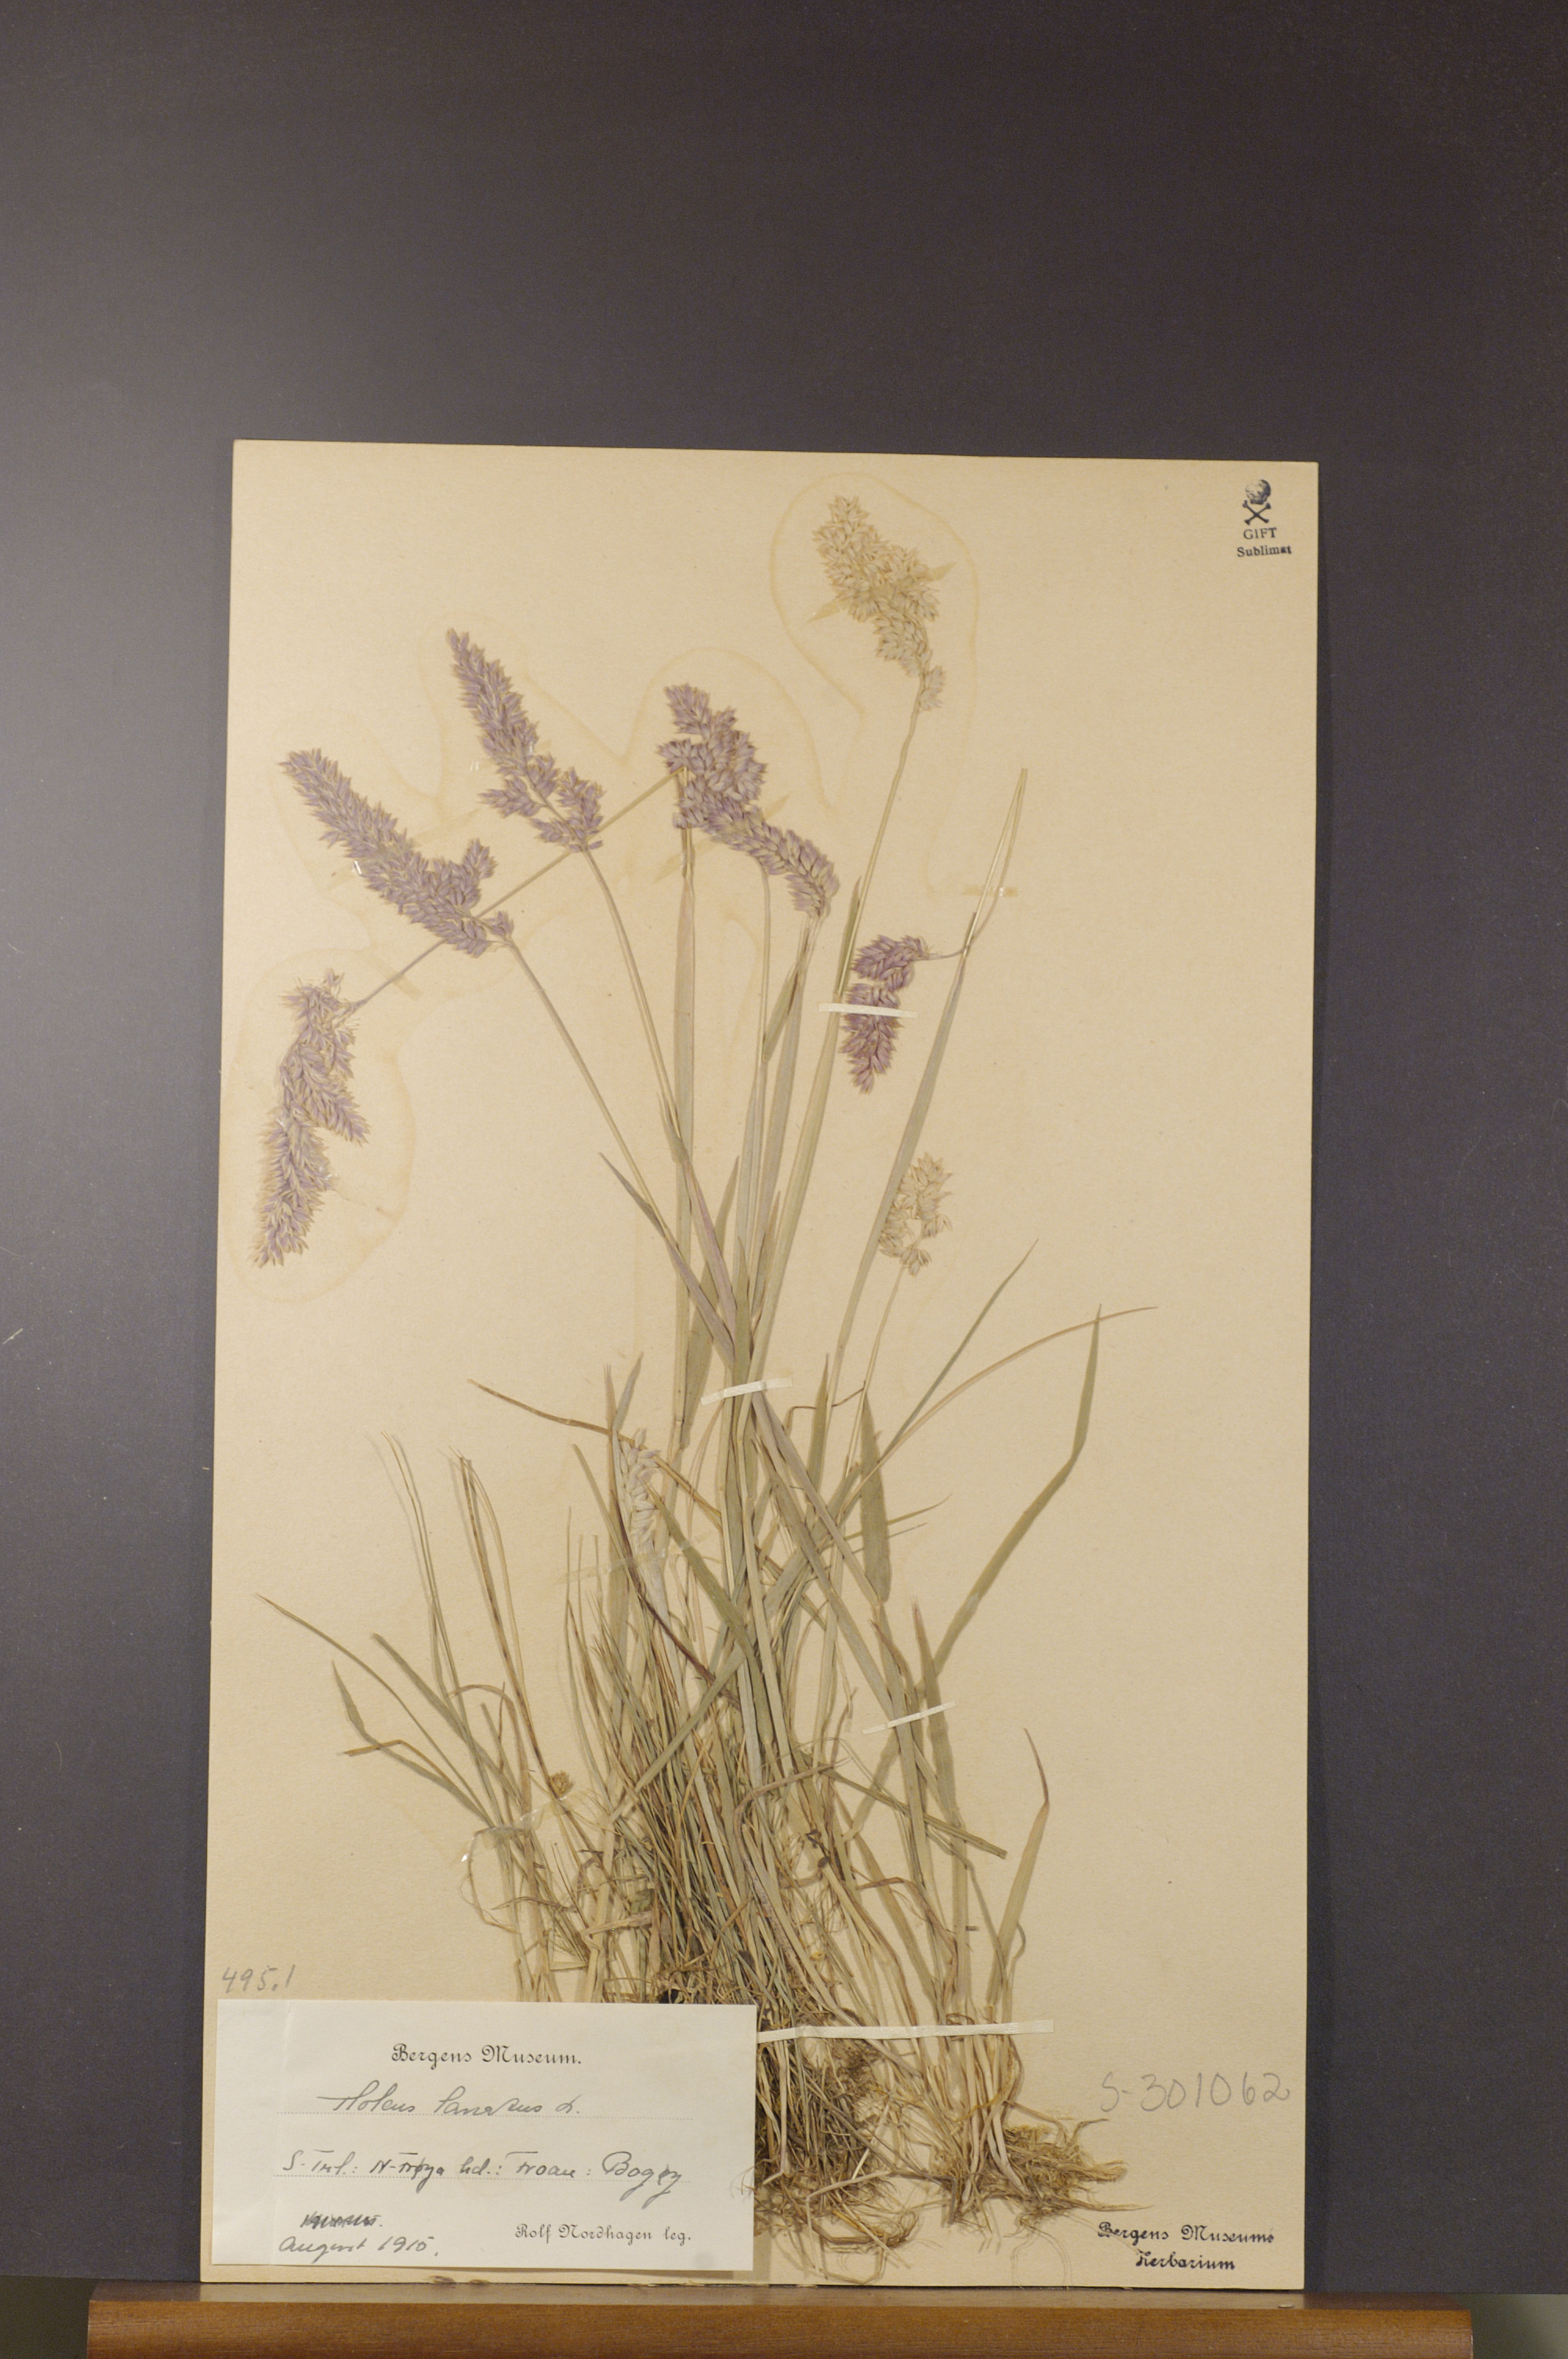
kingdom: Plantae
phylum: Tracheophyta
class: Liliopsida
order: Poales
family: Poaceae
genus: Holcus
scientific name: Holcus lanatus
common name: Yorkshire-fog
